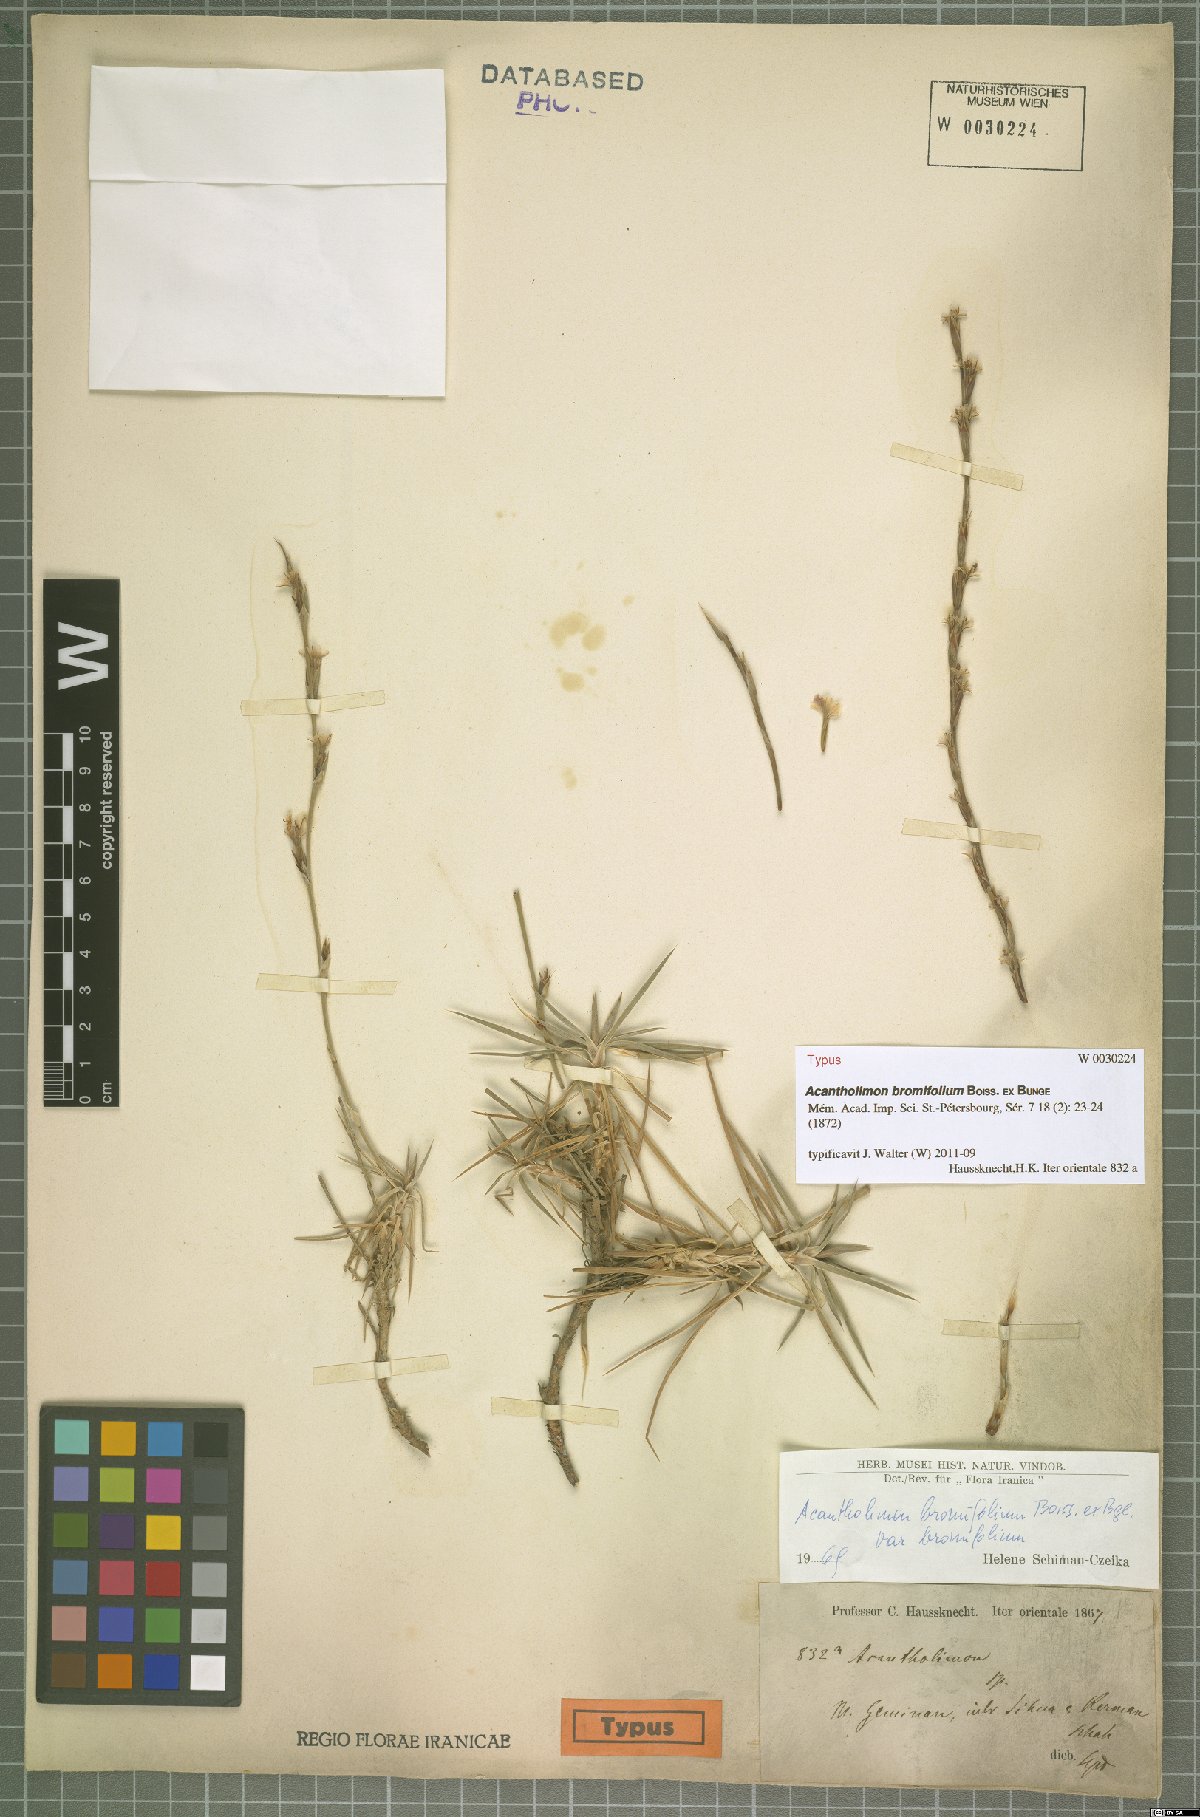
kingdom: Plantae
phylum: Tracheophyta
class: Magnoliopsida
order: Caryophyllales
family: Plumbaginaceae
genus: Acantholimon
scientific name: Acantholimon bromifolium
